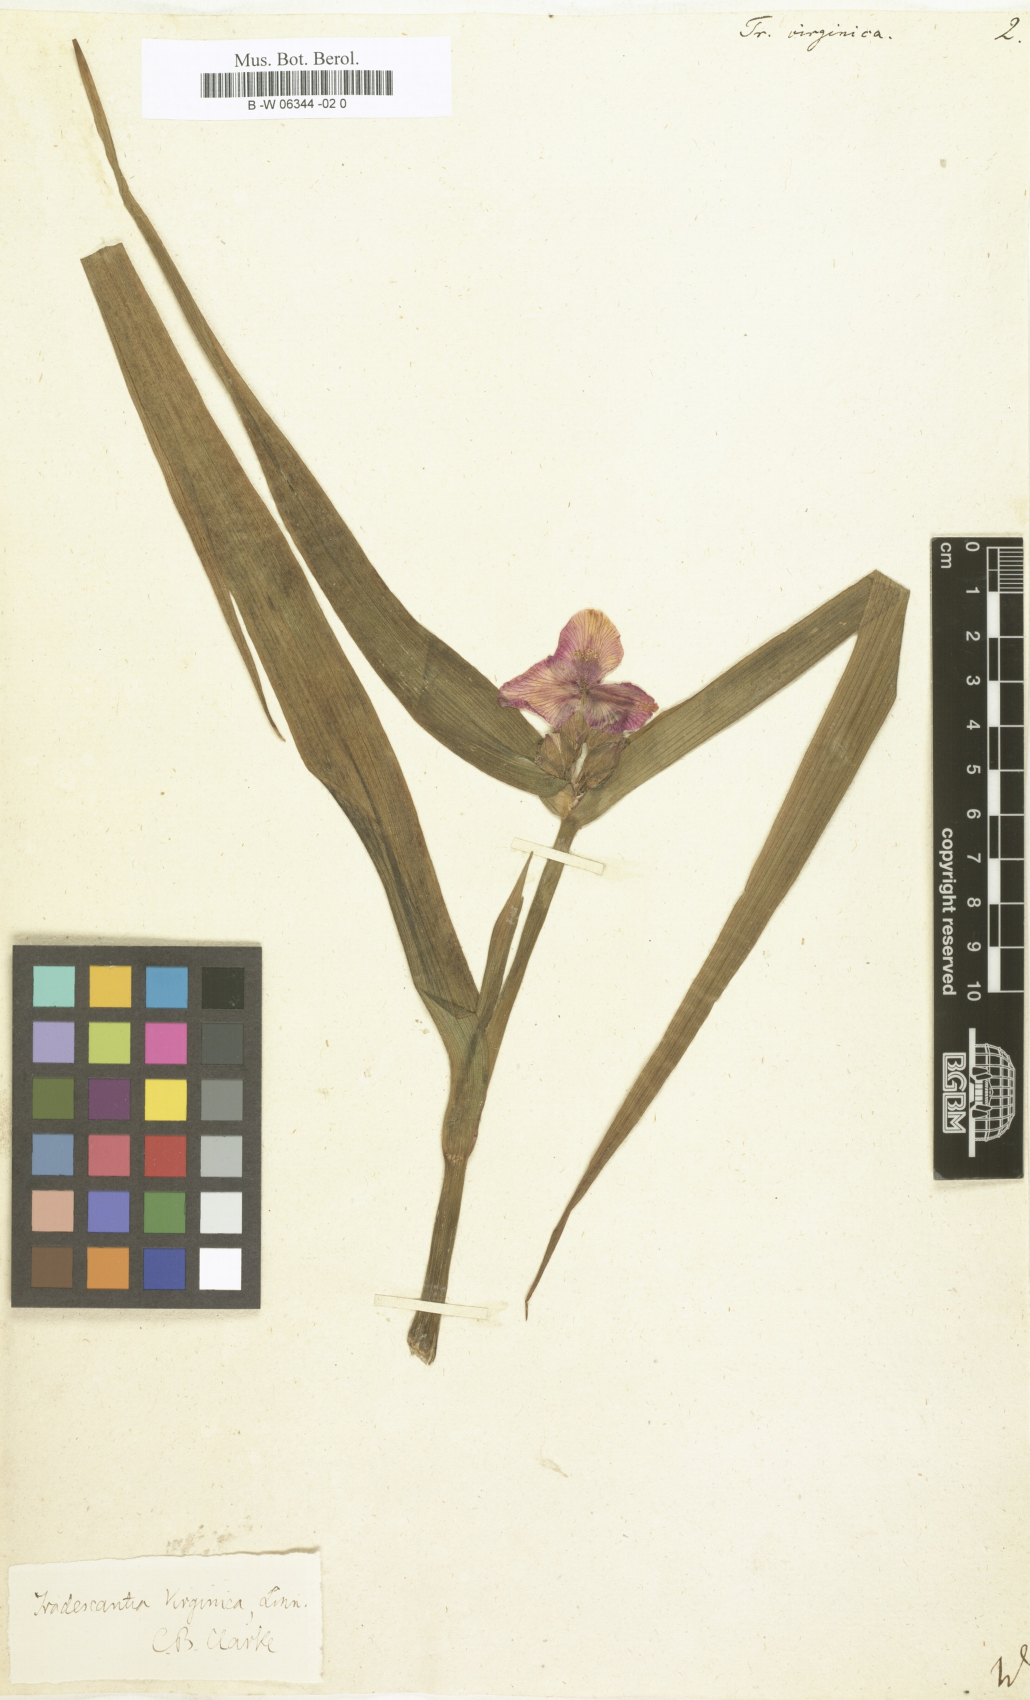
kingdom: Plantae
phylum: Tracheophyta
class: Liliopsida
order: Commelinales
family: Commelinaceae
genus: Tradescantia
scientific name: Tradescantia virginica
